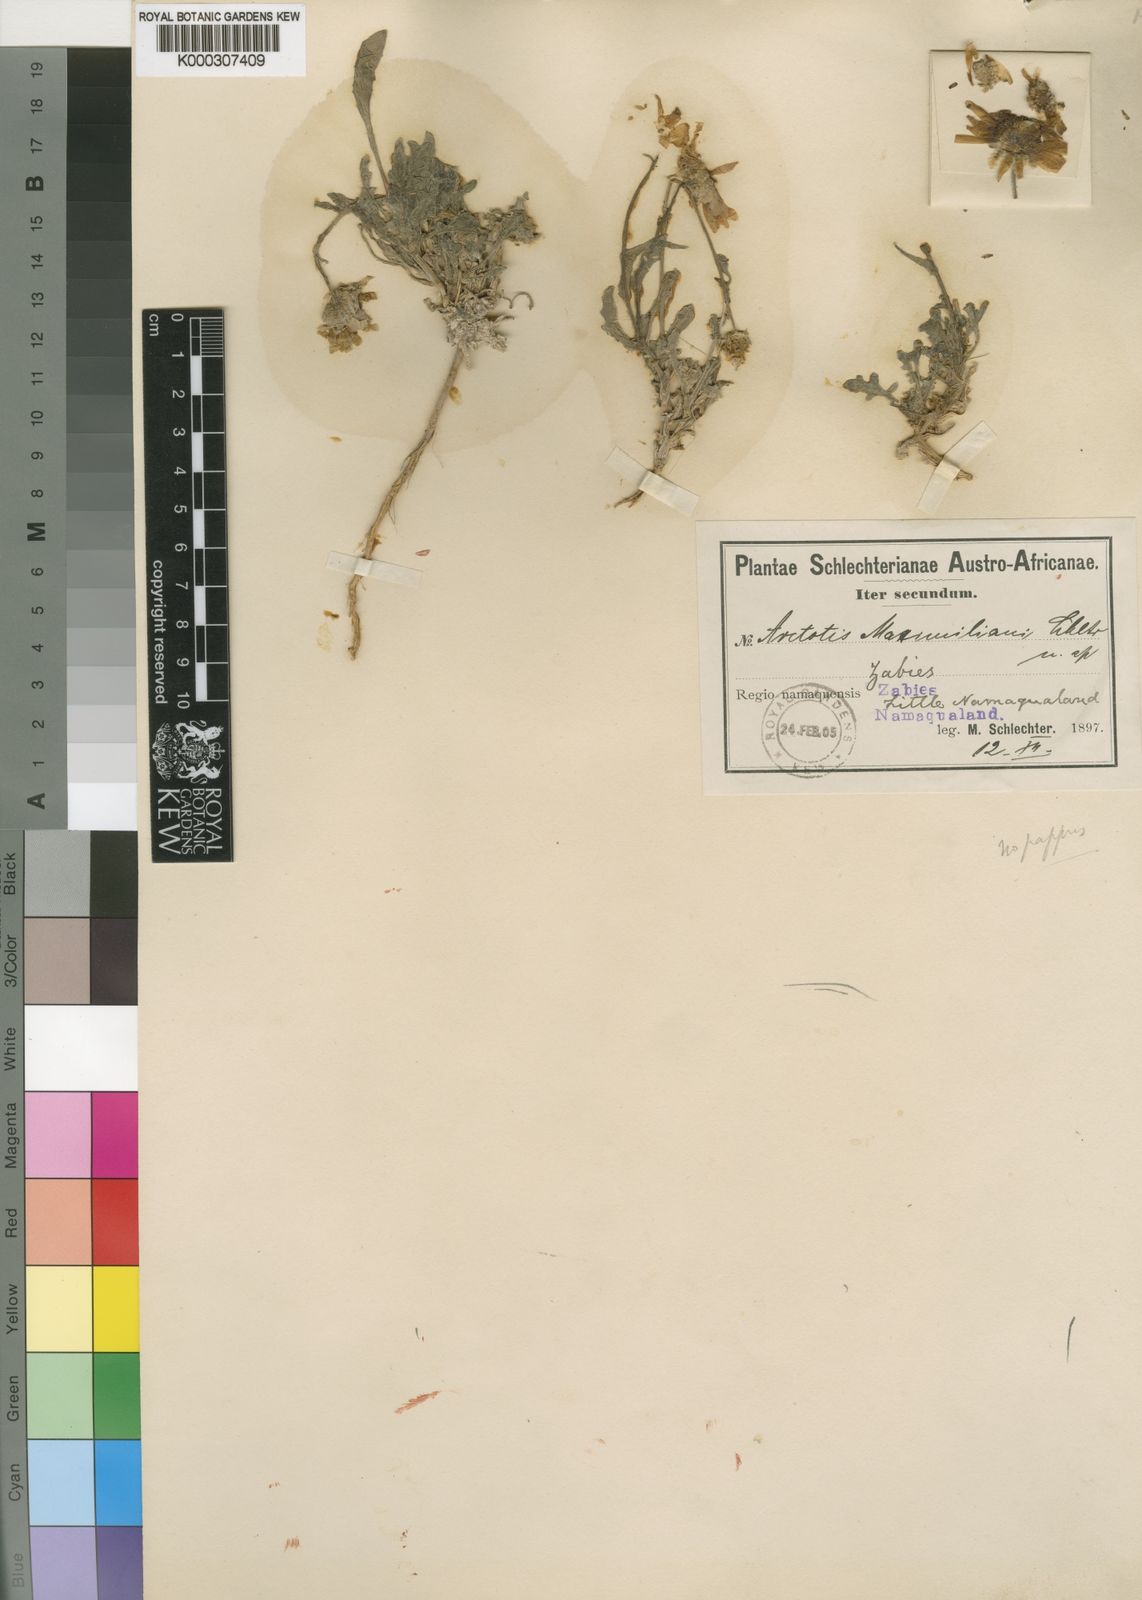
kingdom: Plantae
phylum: Tracheophyta
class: Magnoliopsida
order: Asterales
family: Asteraceae
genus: Arctotis
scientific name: Arctotis
